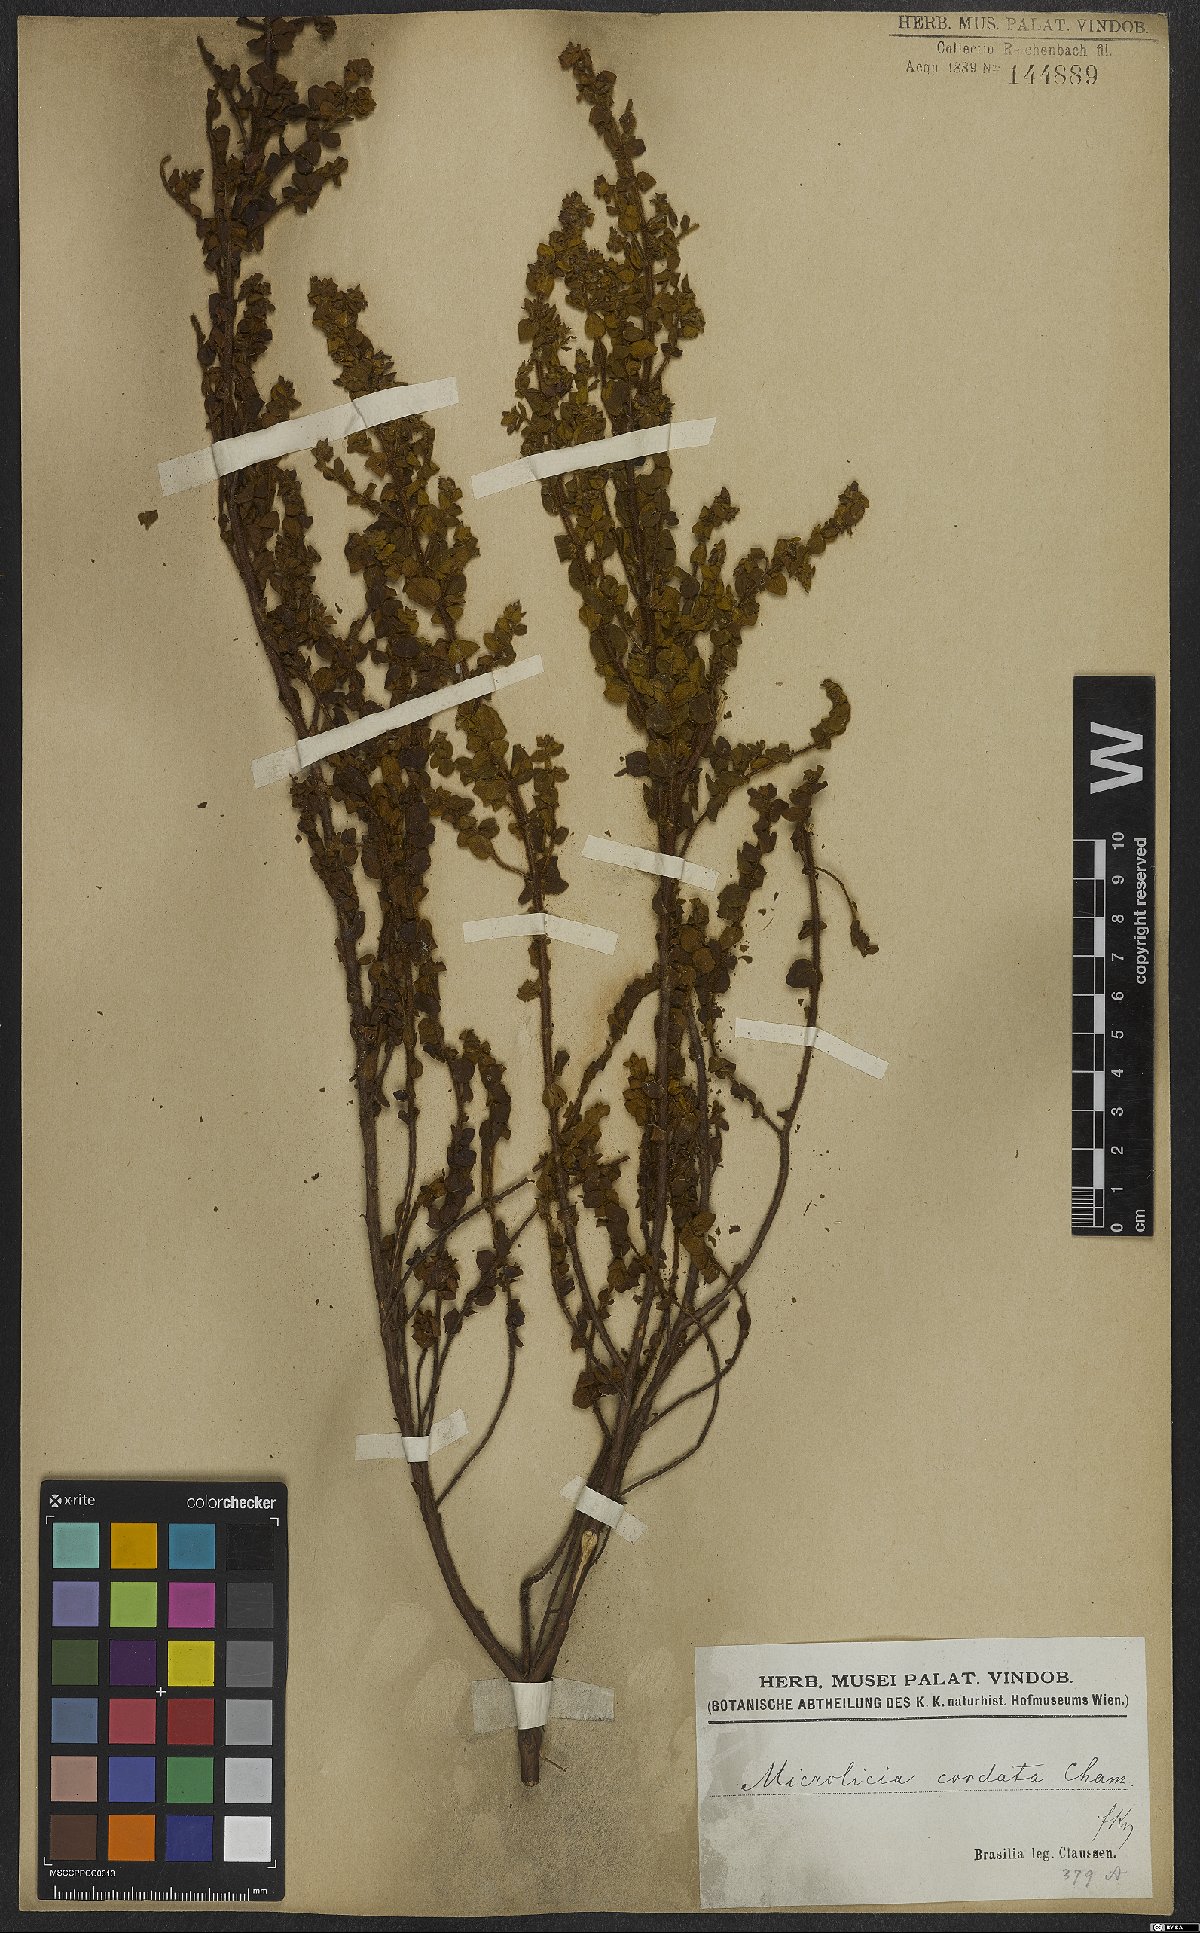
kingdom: Plantae
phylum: Tracheophyta
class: Magnoliopsida
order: Myrtales
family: Melastomataceae
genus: Microlicia
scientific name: Microlicia cordata
